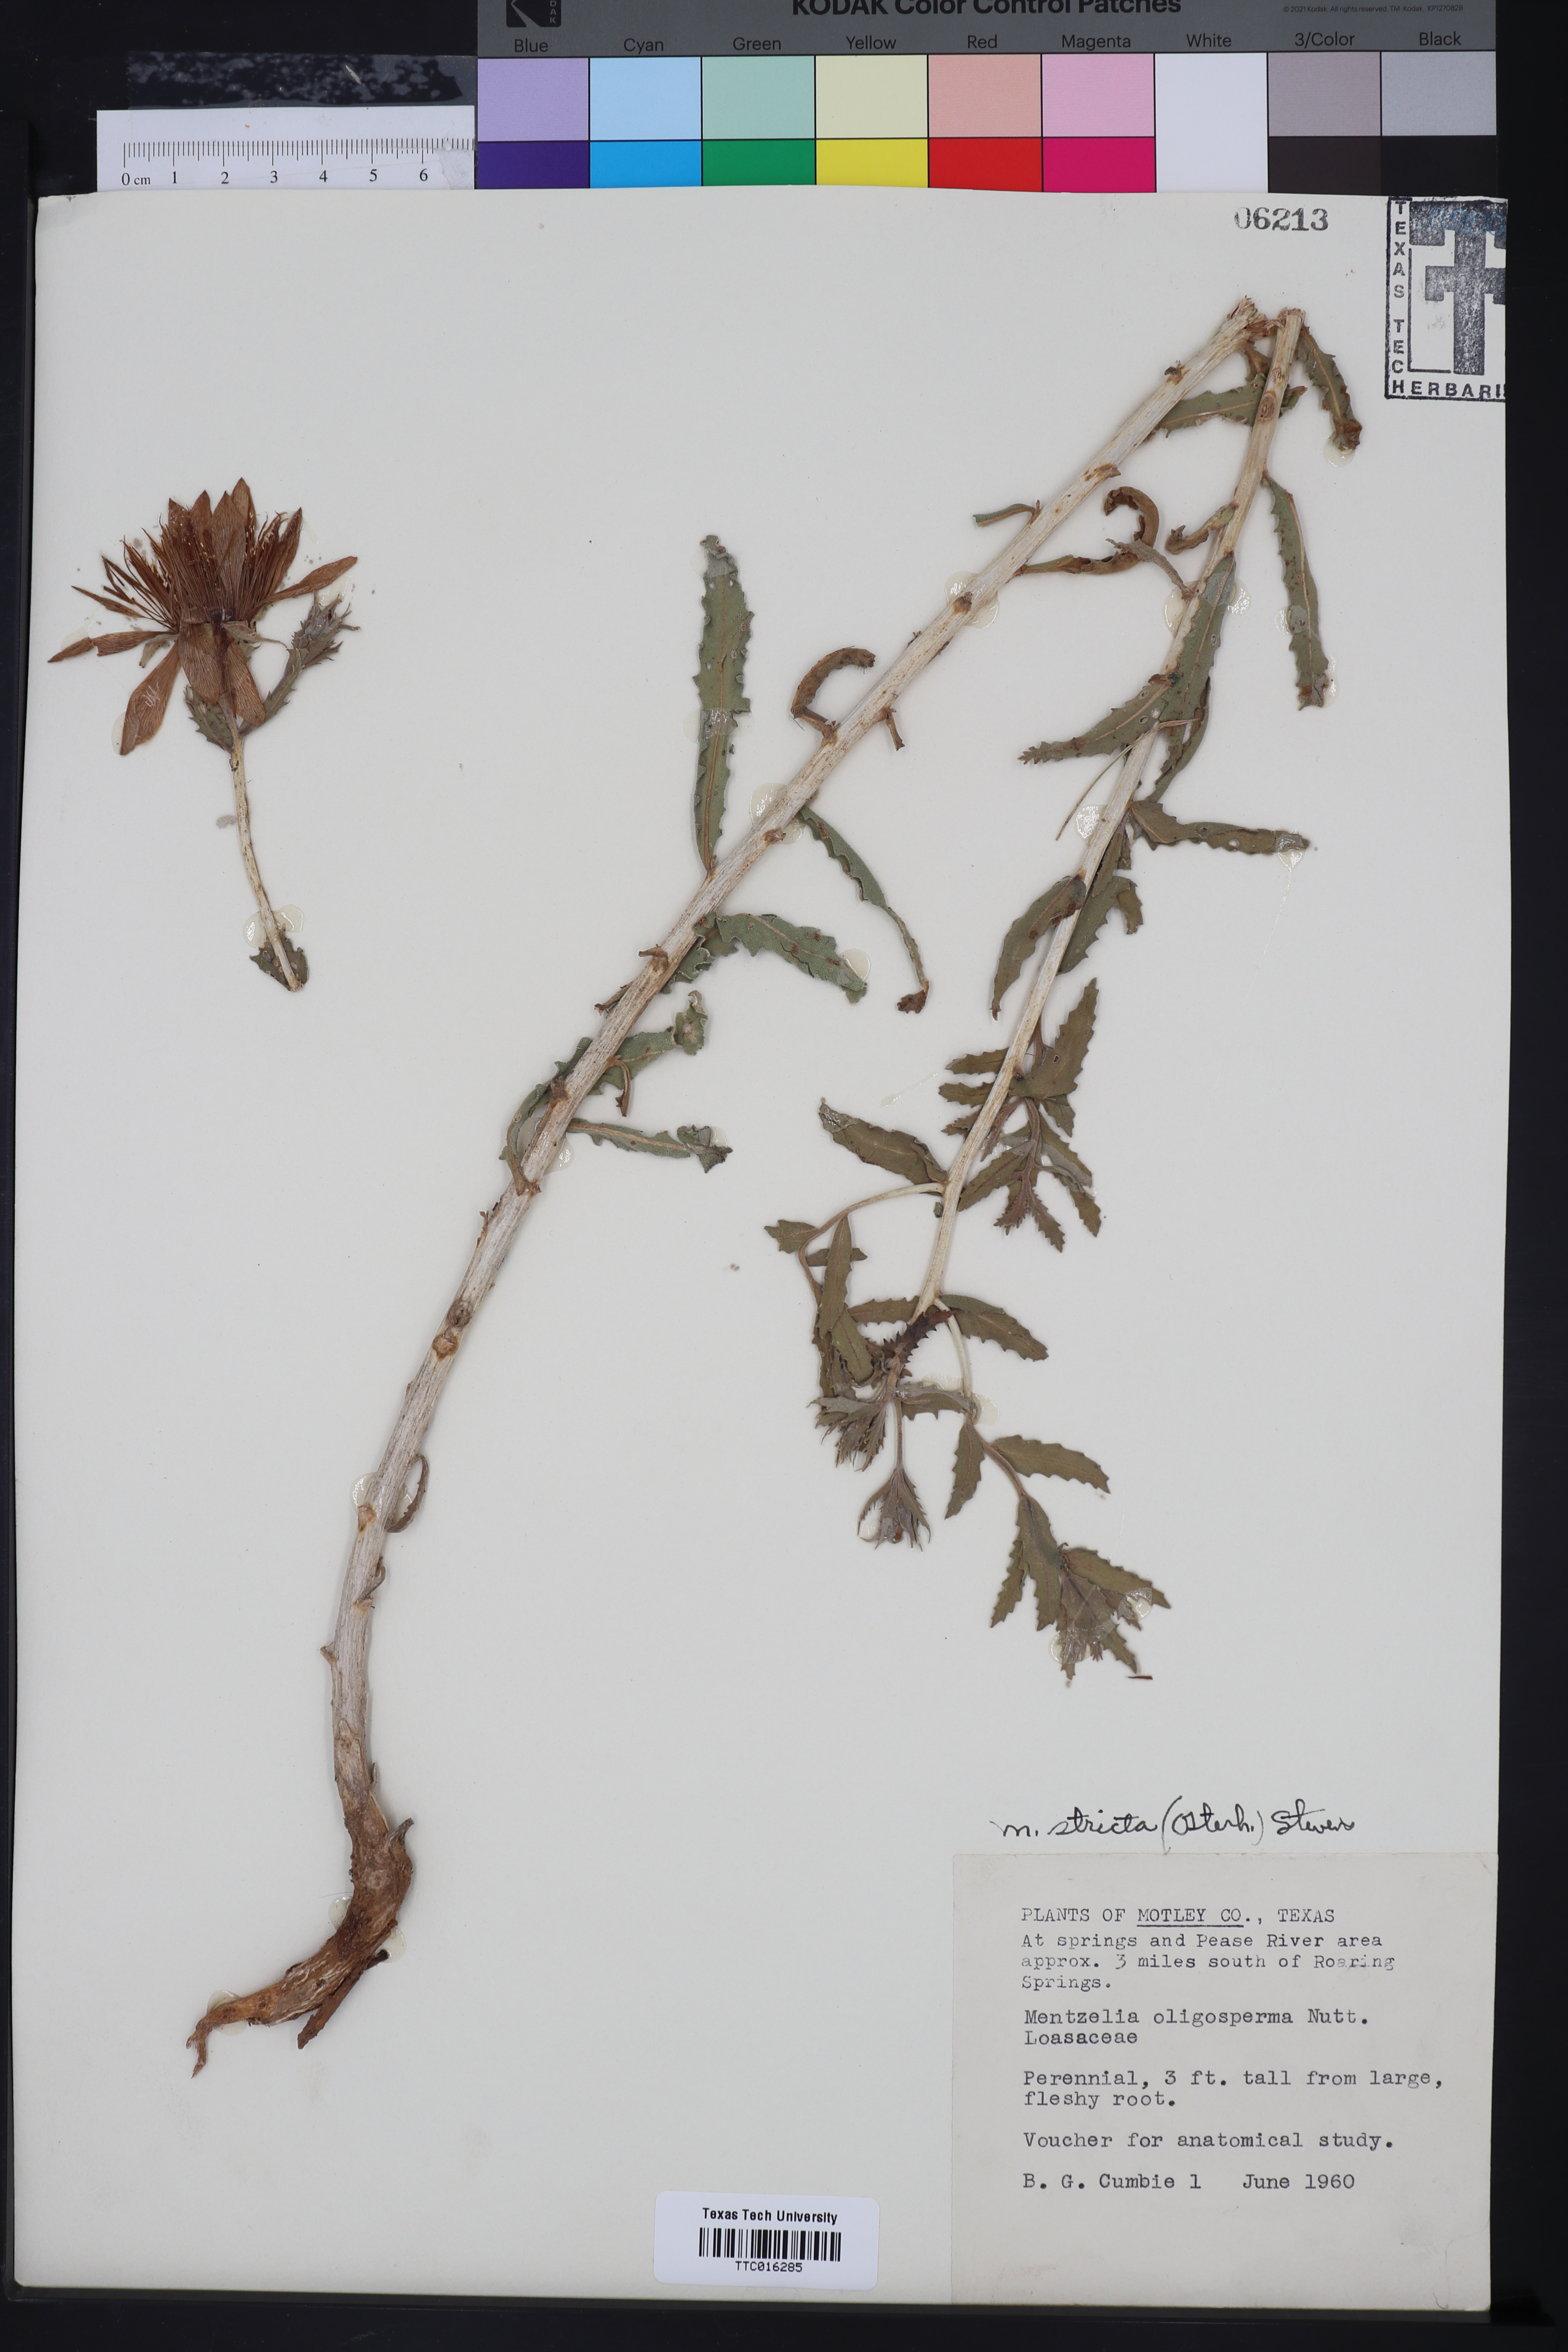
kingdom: Plantae
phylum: Tracheophyta
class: Magnoliopsida
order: Cornales
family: Loasaceae
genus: Mentzelia
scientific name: Mentzelia nuda
